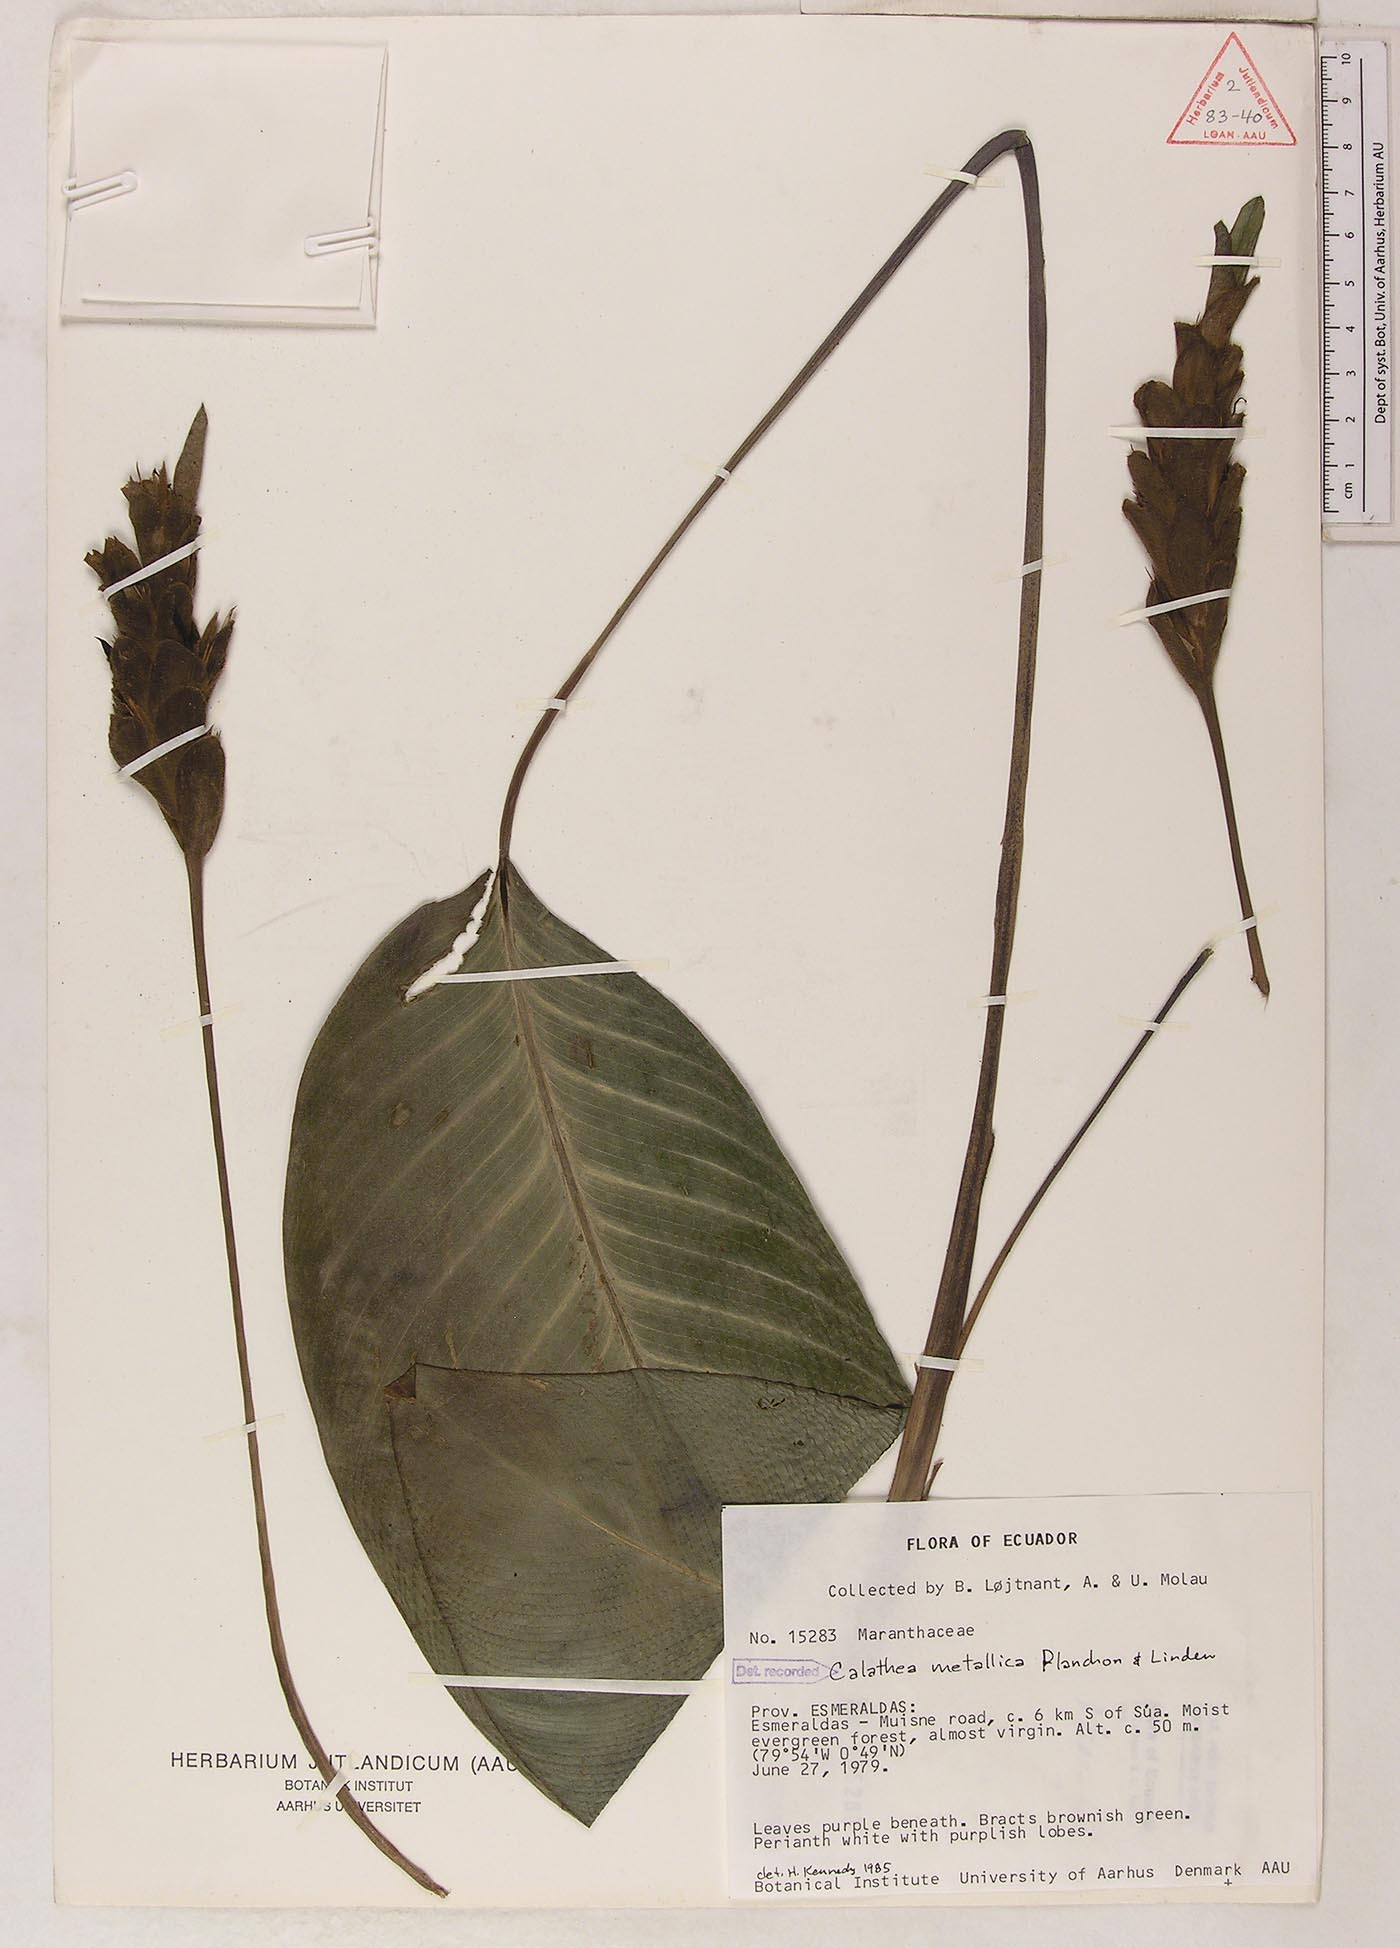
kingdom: Plantae
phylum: Tracheophyta
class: Liliopsida
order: Zingiberales
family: Marantaceae
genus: Goeppertia
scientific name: Goeppertia metallica
